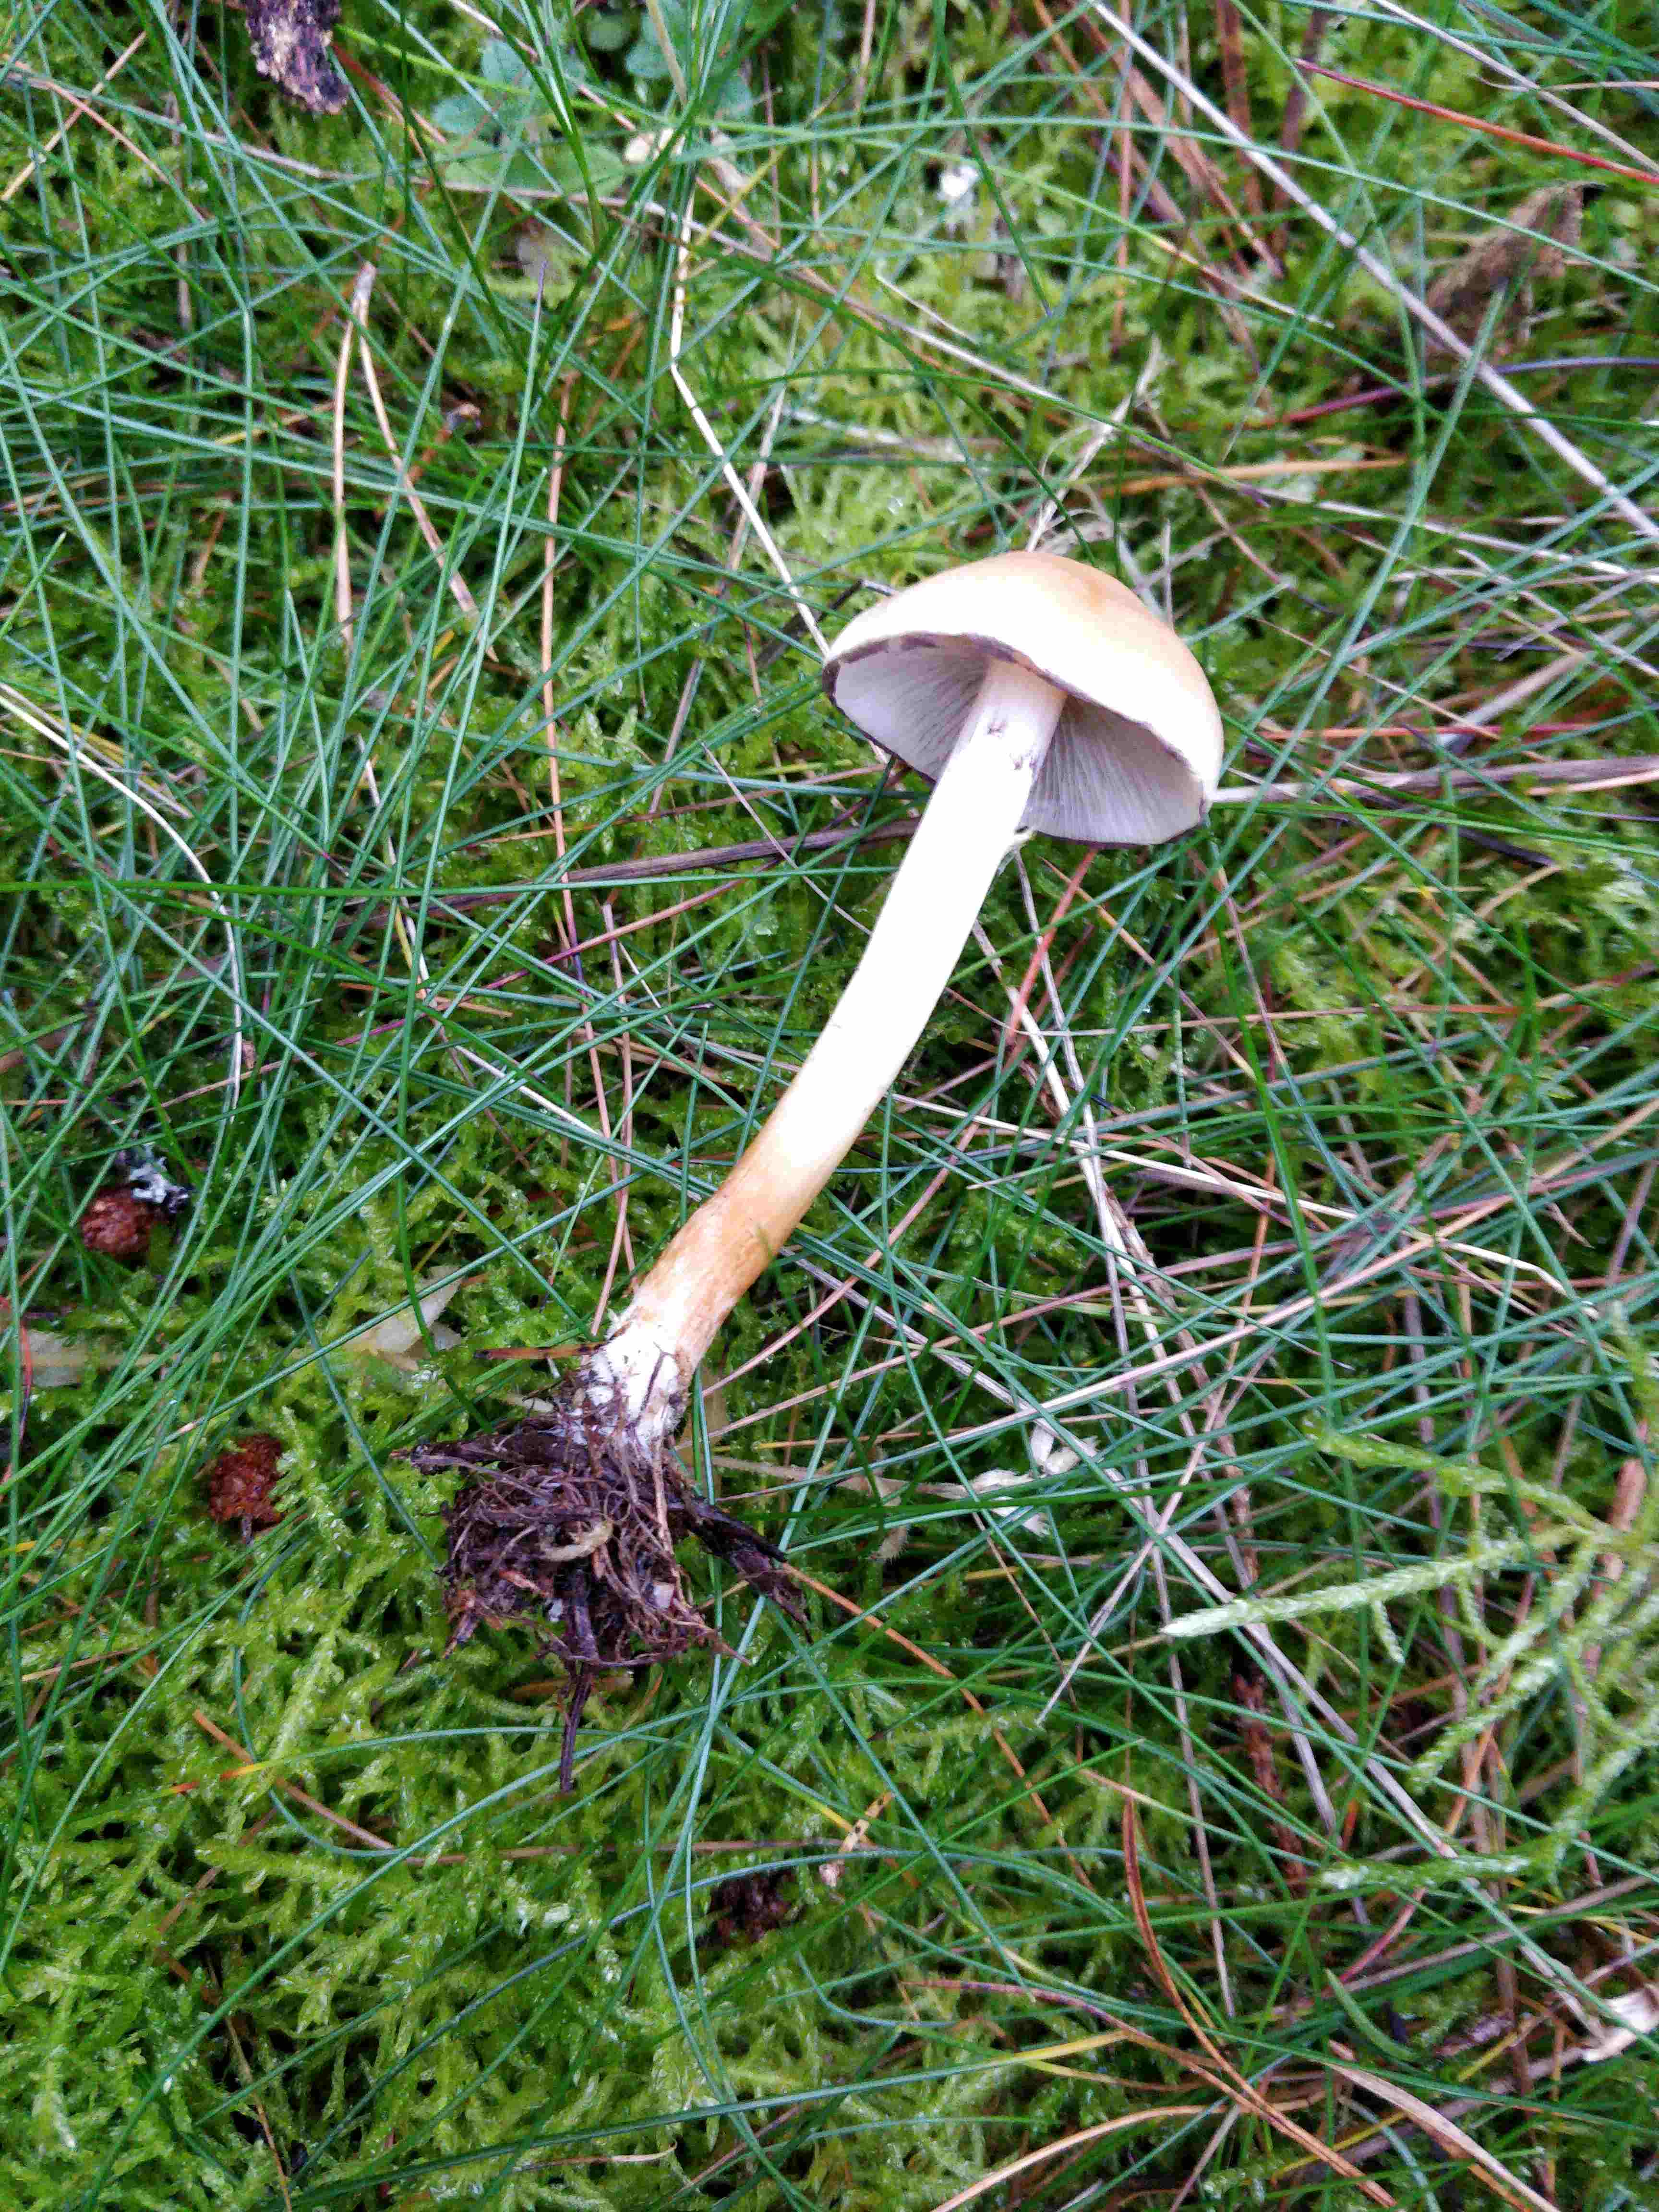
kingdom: Fungi
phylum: Basidiomycota
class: Agaricomycetes
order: Agaricales
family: Strophariaceae
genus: Hypholoma
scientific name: Hypholoma capnoides
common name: gran-svovlhat
